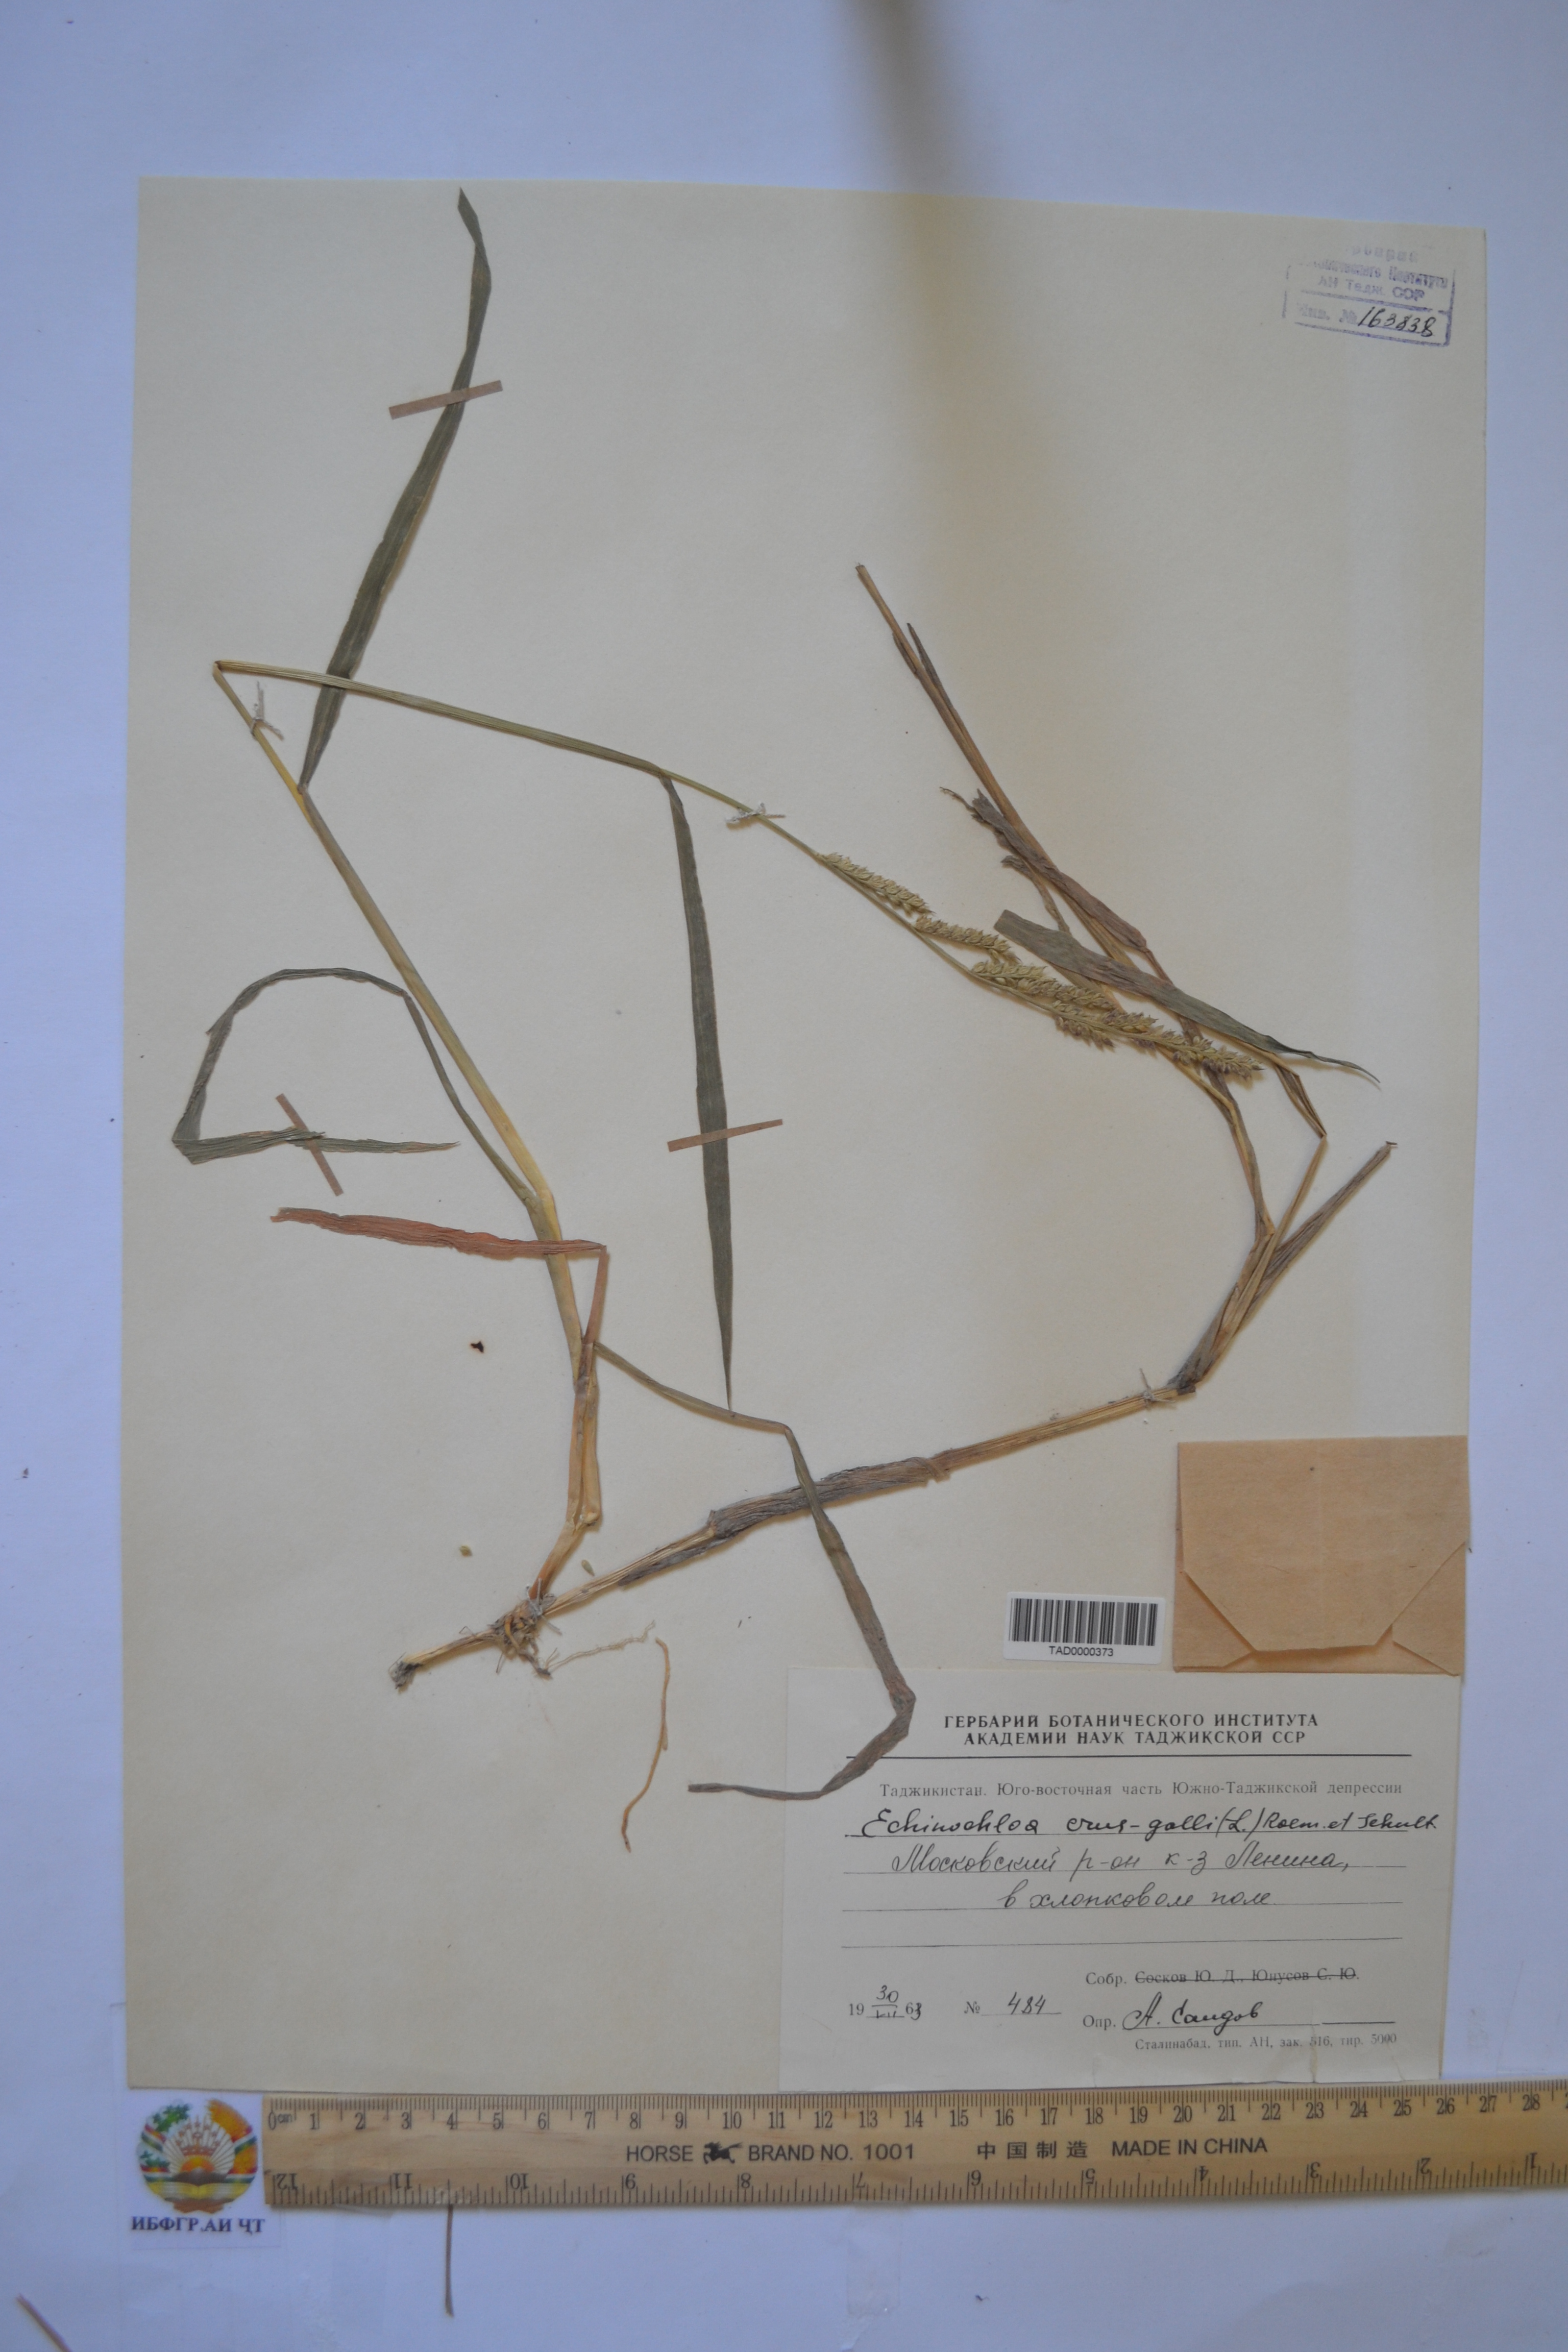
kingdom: Plantae
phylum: Tracheophyta
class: Liliopsida
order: Poales
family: Poaceae
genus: Echinochloa
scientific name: Echinochloa crus-galli
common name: Cockspur
